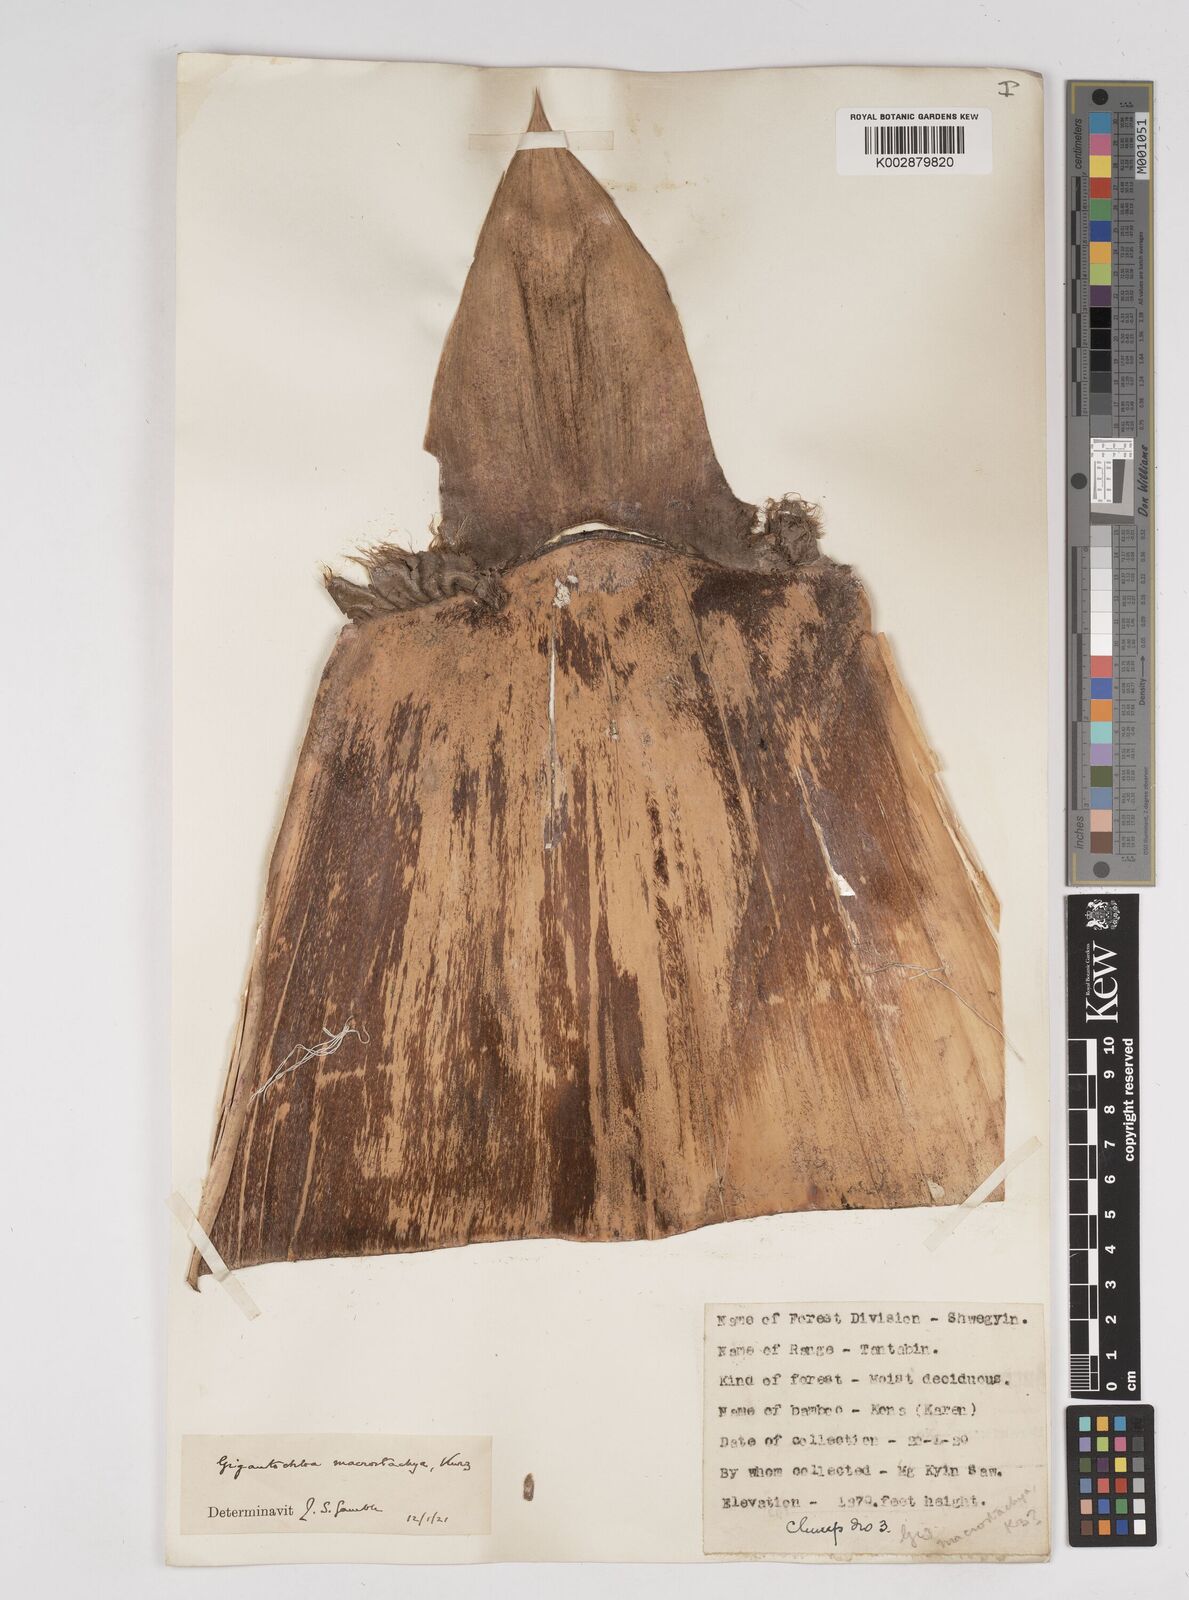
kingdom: Plantae
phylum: Tracheophyta
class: Liliopsida
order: Poales
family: Poaceae
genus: Gigantochloa
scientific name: Gigantochloa macrostachya
